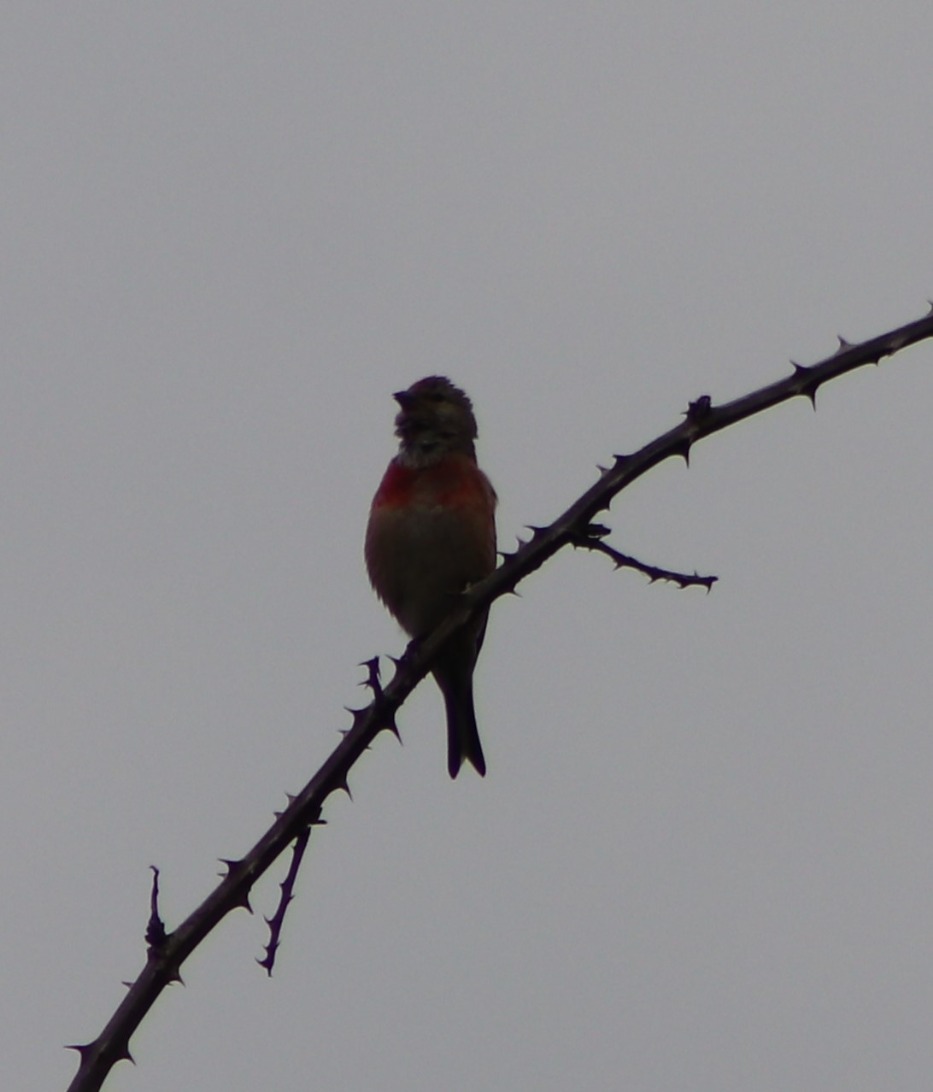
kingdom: Animalia
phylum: Chordata
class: Aves
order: Passeriformes
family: Fringillidae
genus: Linaria
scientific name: Linaria cannabina
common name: Tornirisk
